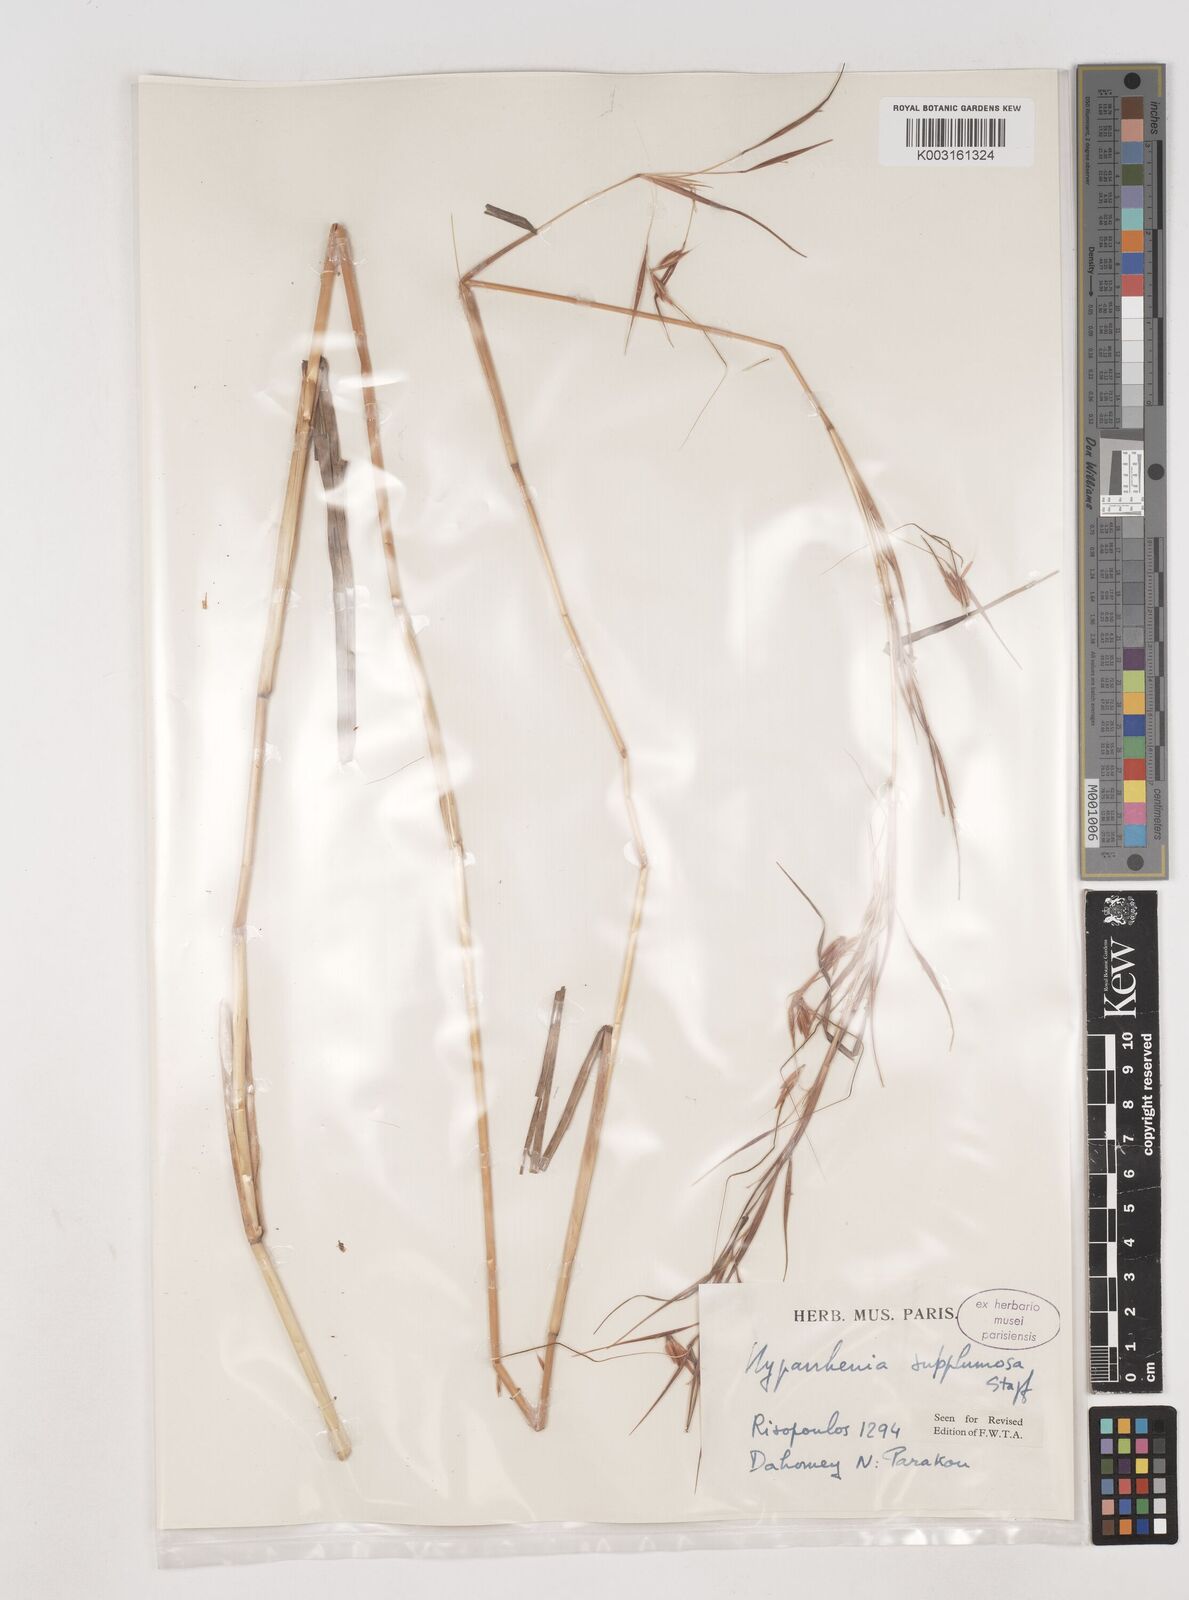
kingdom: Plantae
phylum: Tracheophyta
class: Liliopsida
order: Poales
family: Poaceae
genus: Hyparrhenia
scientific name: Hyparrhenia subplumosa
